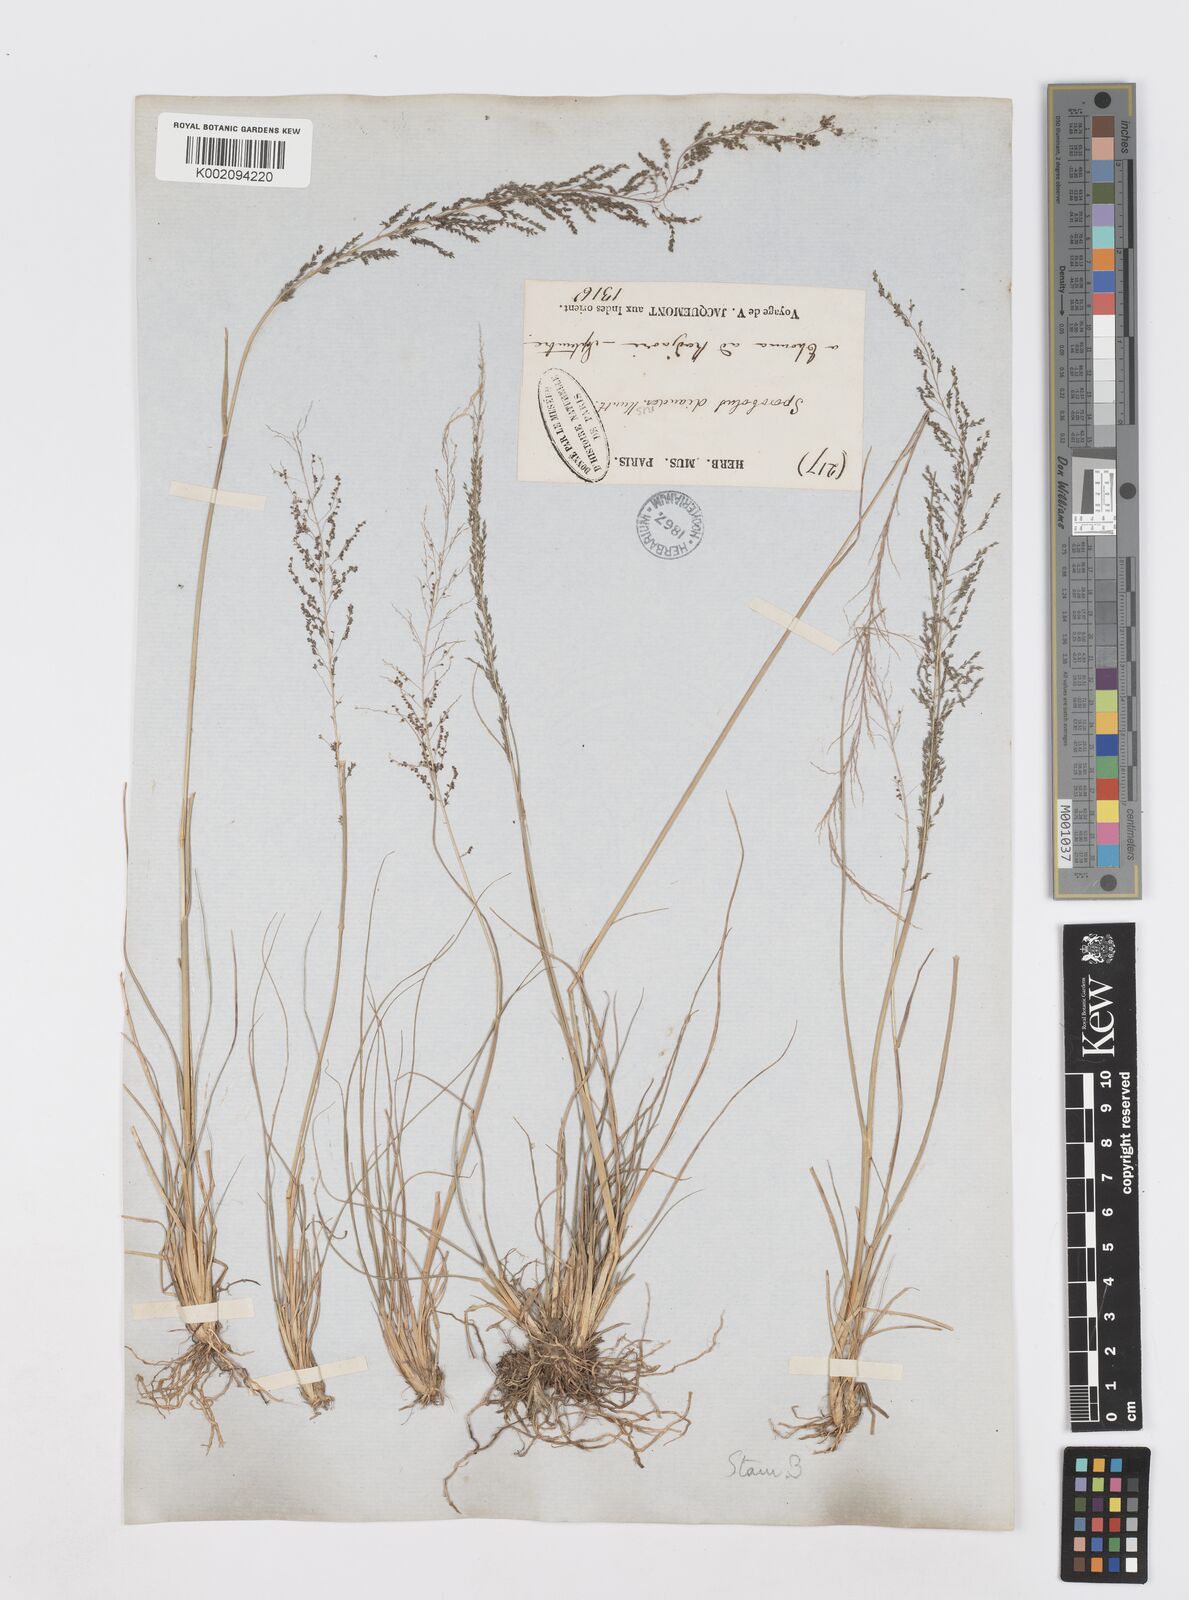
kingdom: Plantae
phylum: Tracheophyta
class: Liliopsida
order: Poales
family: Poaceae
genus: Sporobolus
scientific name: Sporobolus diandrus
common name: Tussock dropseed
